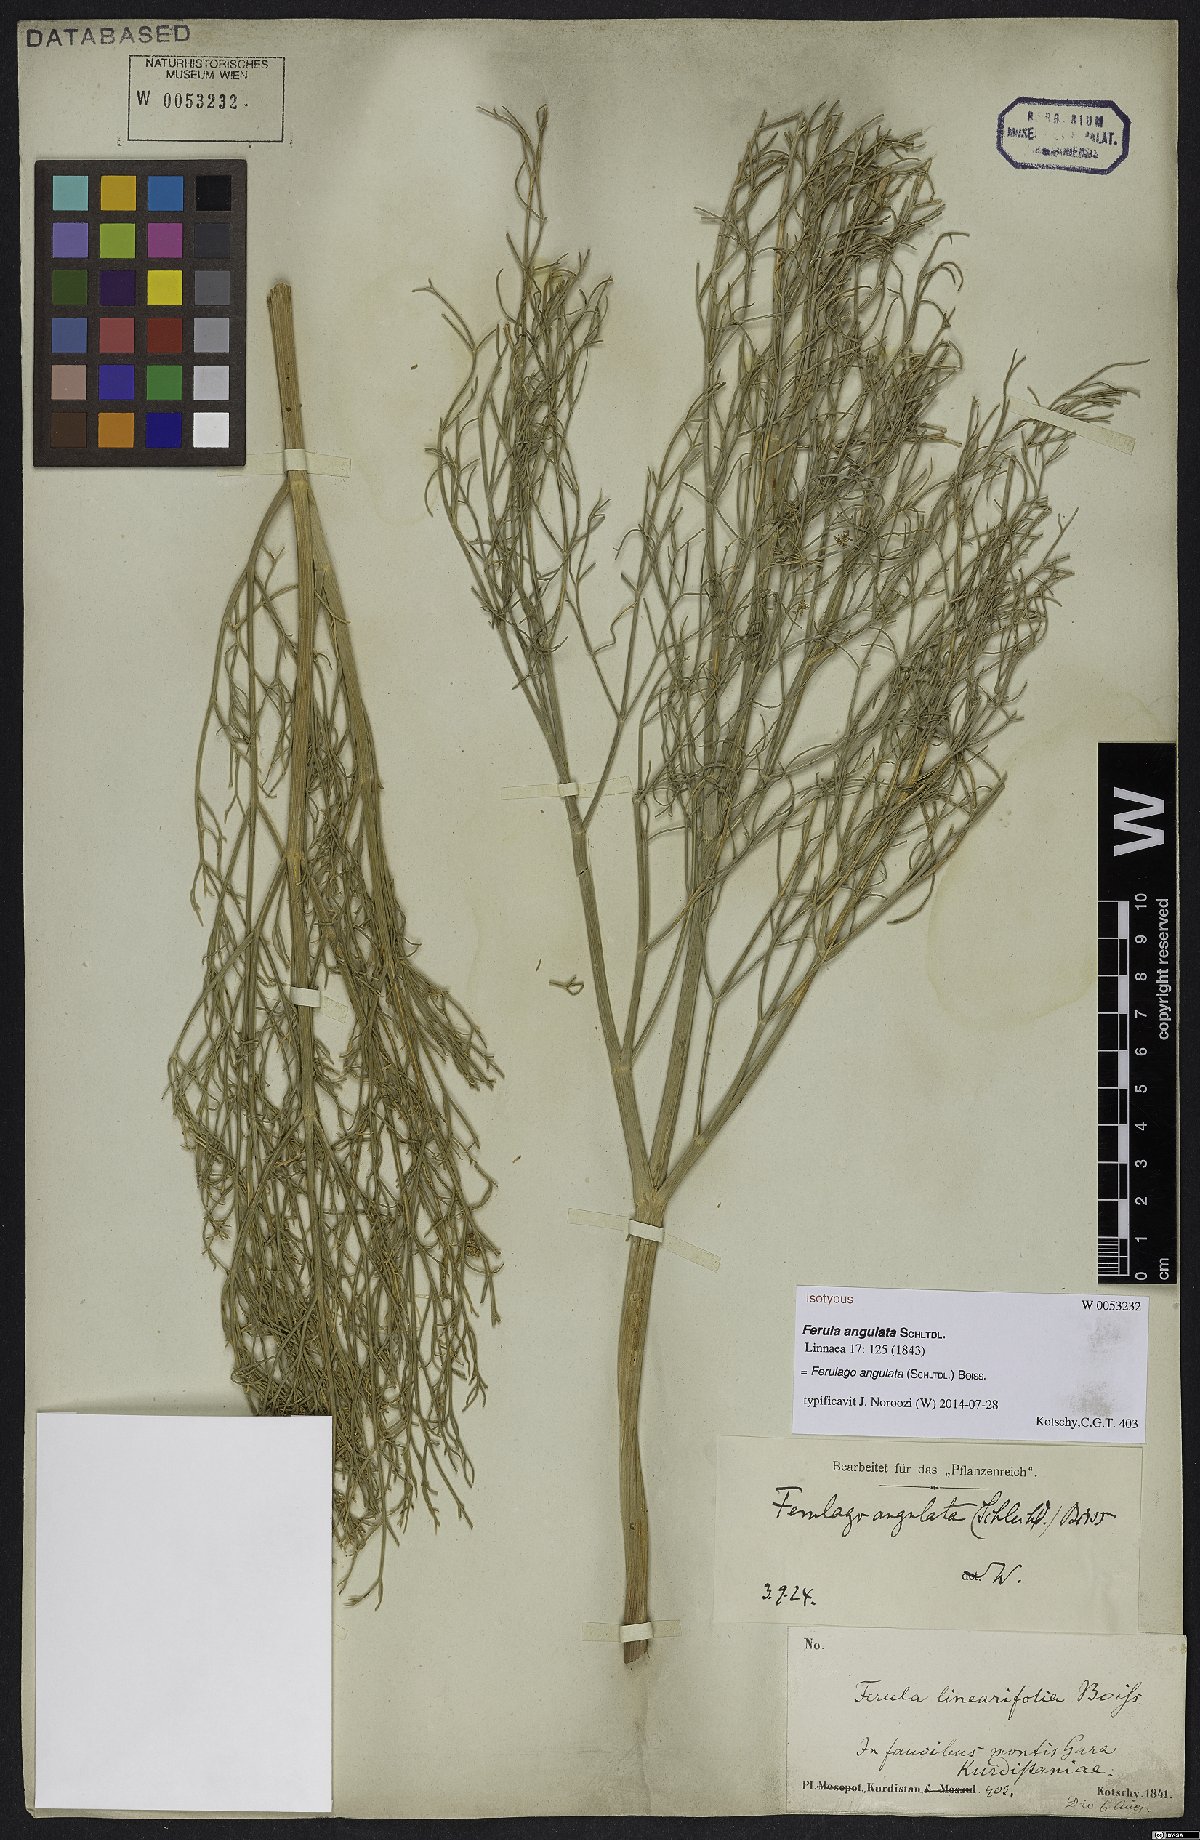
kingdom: Plantae
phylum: Tracheophyta
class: Magnoliopsida
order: Apiales
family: Apiaceae
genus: Ferulago
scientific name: Ferulago angulata
